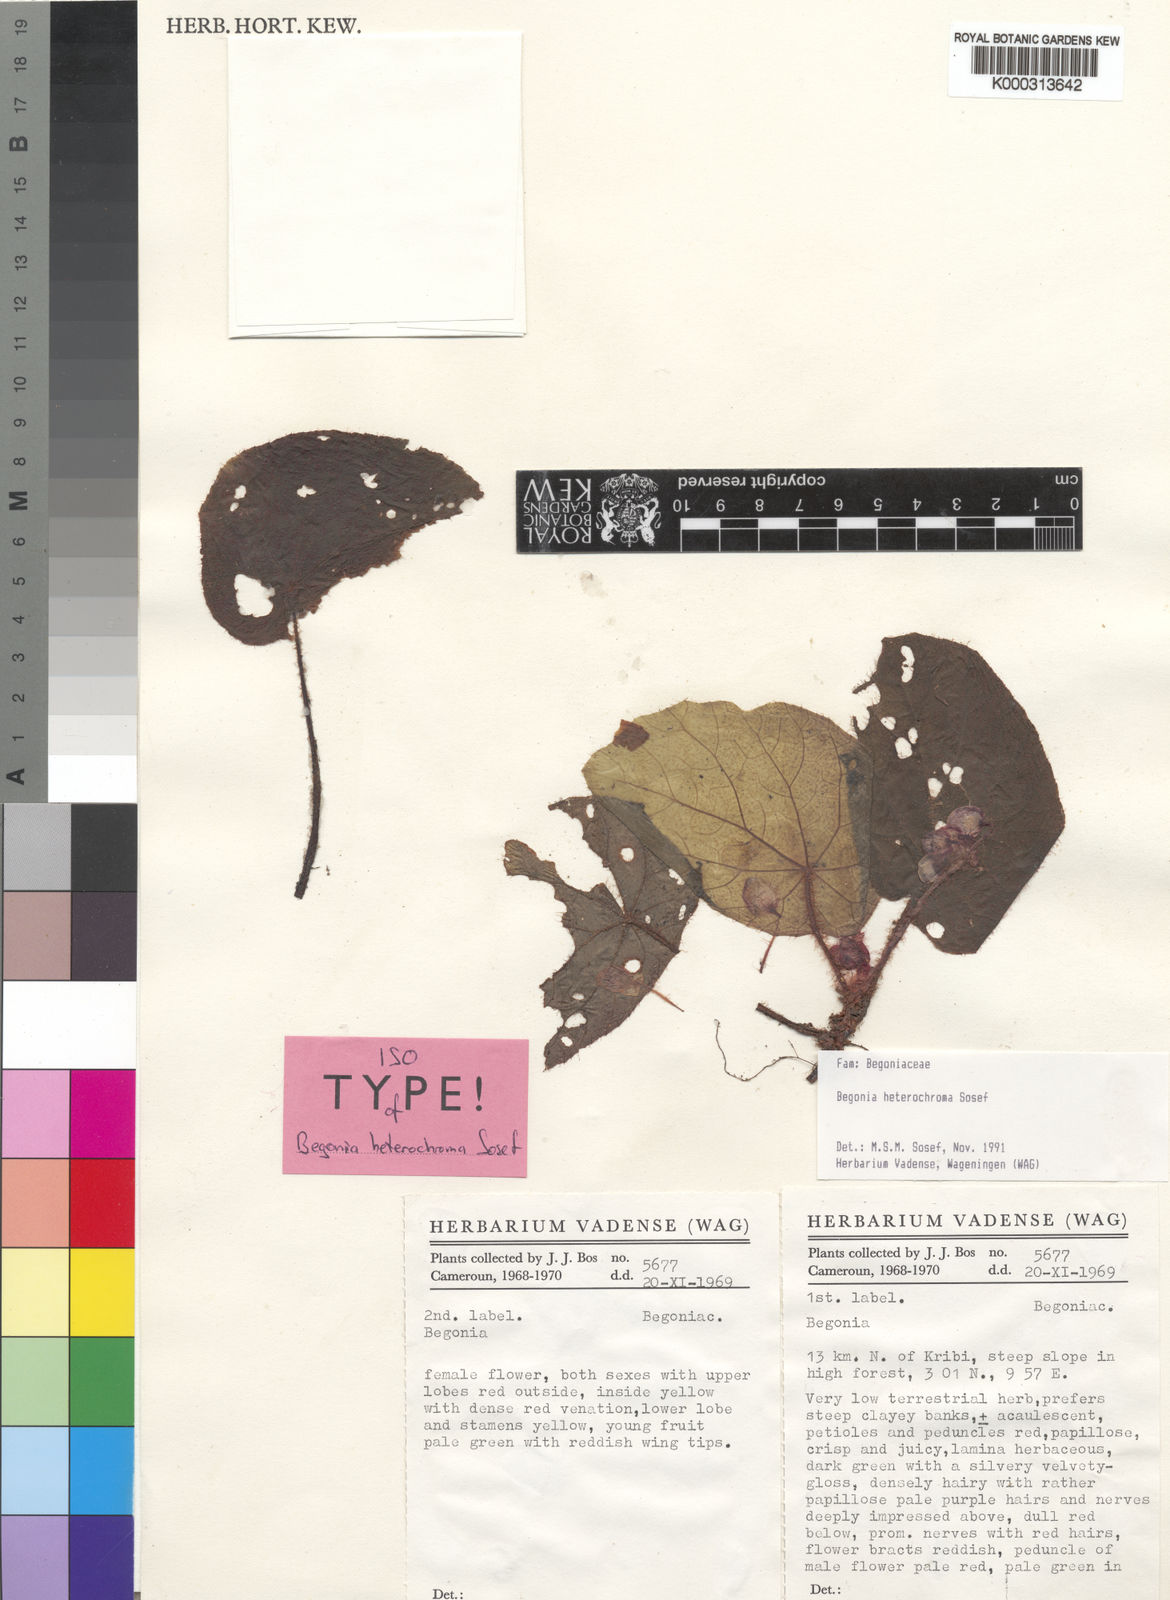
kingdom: Plantae
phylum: Tracheophyta
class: Magnoliopsida
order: Cucurbitales
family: Begoniaceae
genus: Begonia
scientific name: Begonia heterochroma
